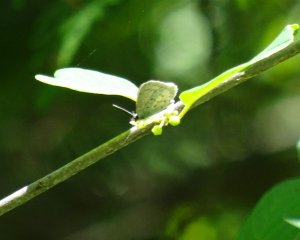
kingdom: Animalia
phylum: Arthropoda
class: Insecta
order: Lepidoptera
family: Lycaenidae
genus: Celastrina
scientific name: Celastrina lucia
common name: Northern Spring Azure
